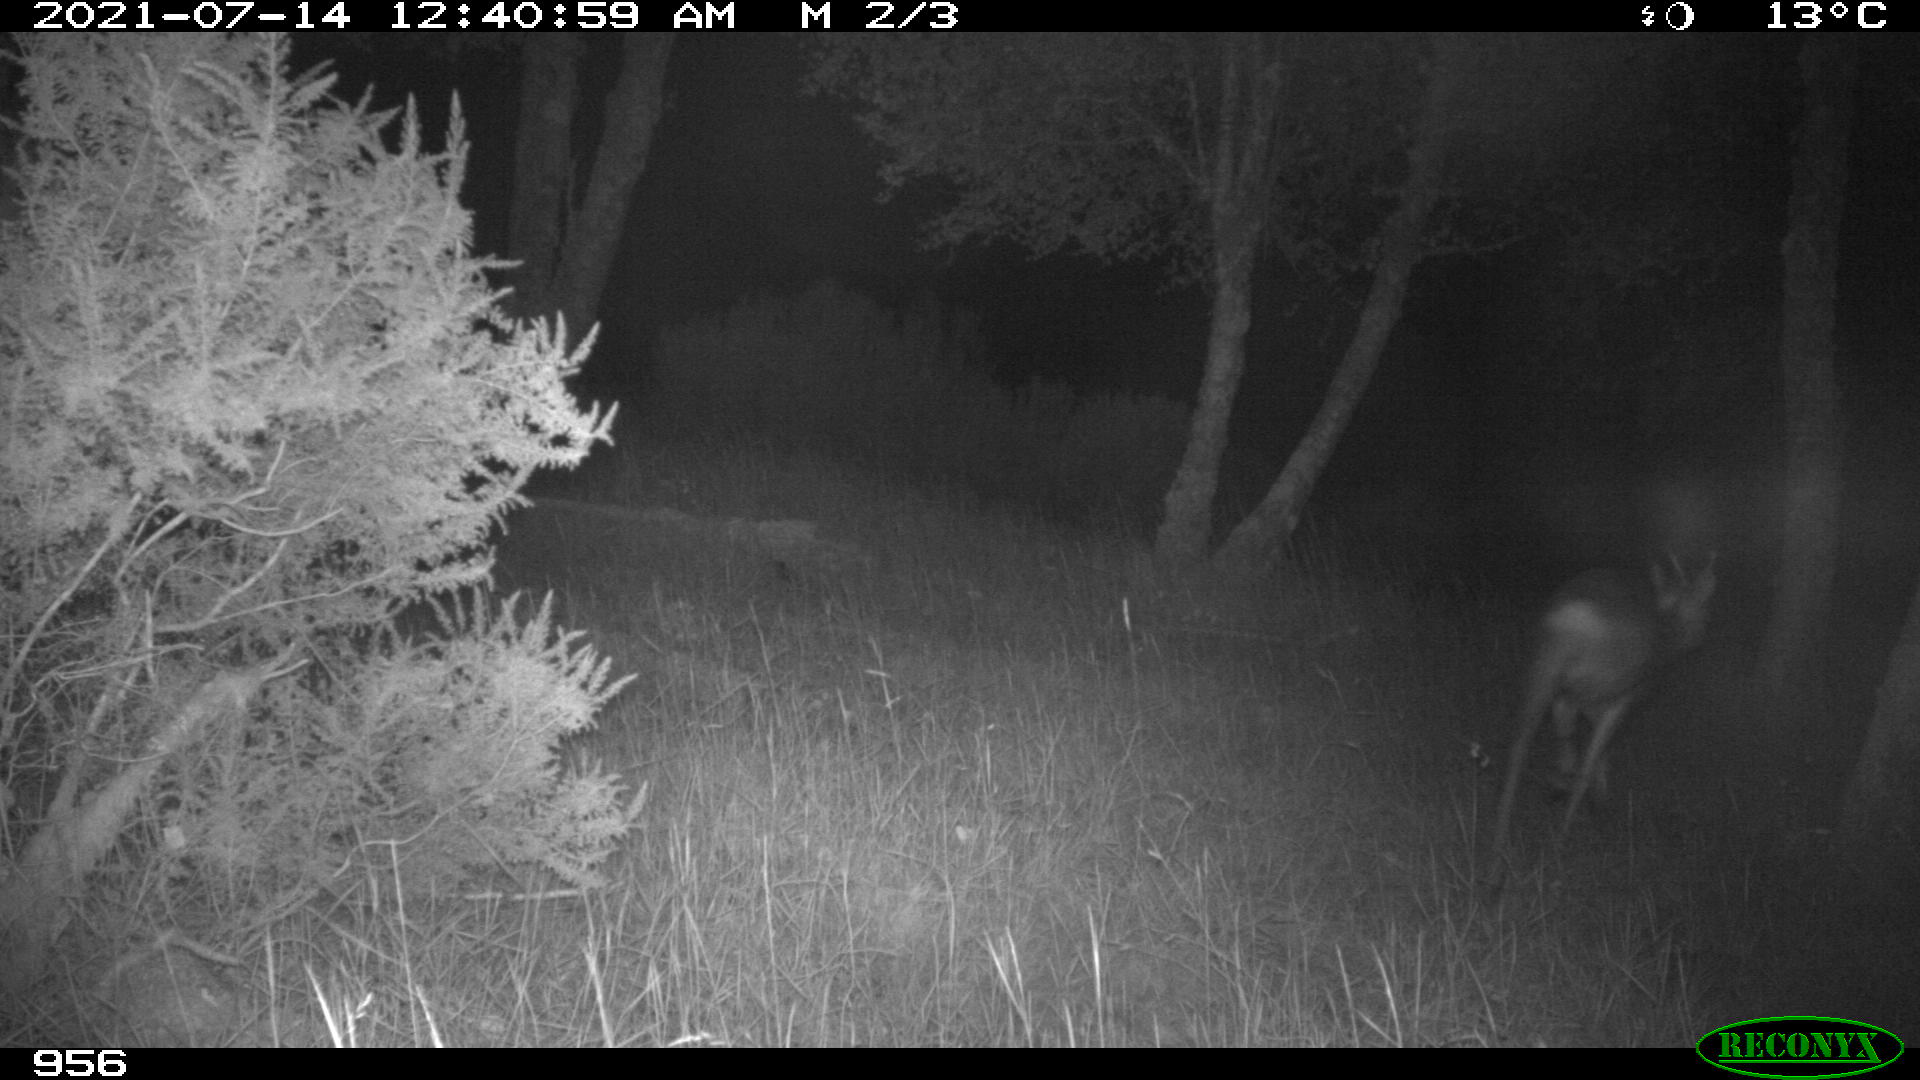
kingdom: Animalia
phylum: Chordata
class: Mammalia
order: Artiodactyla
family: Cervidae
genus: Capreolus
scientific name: Capreolus capreolus
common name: Western roe deer
